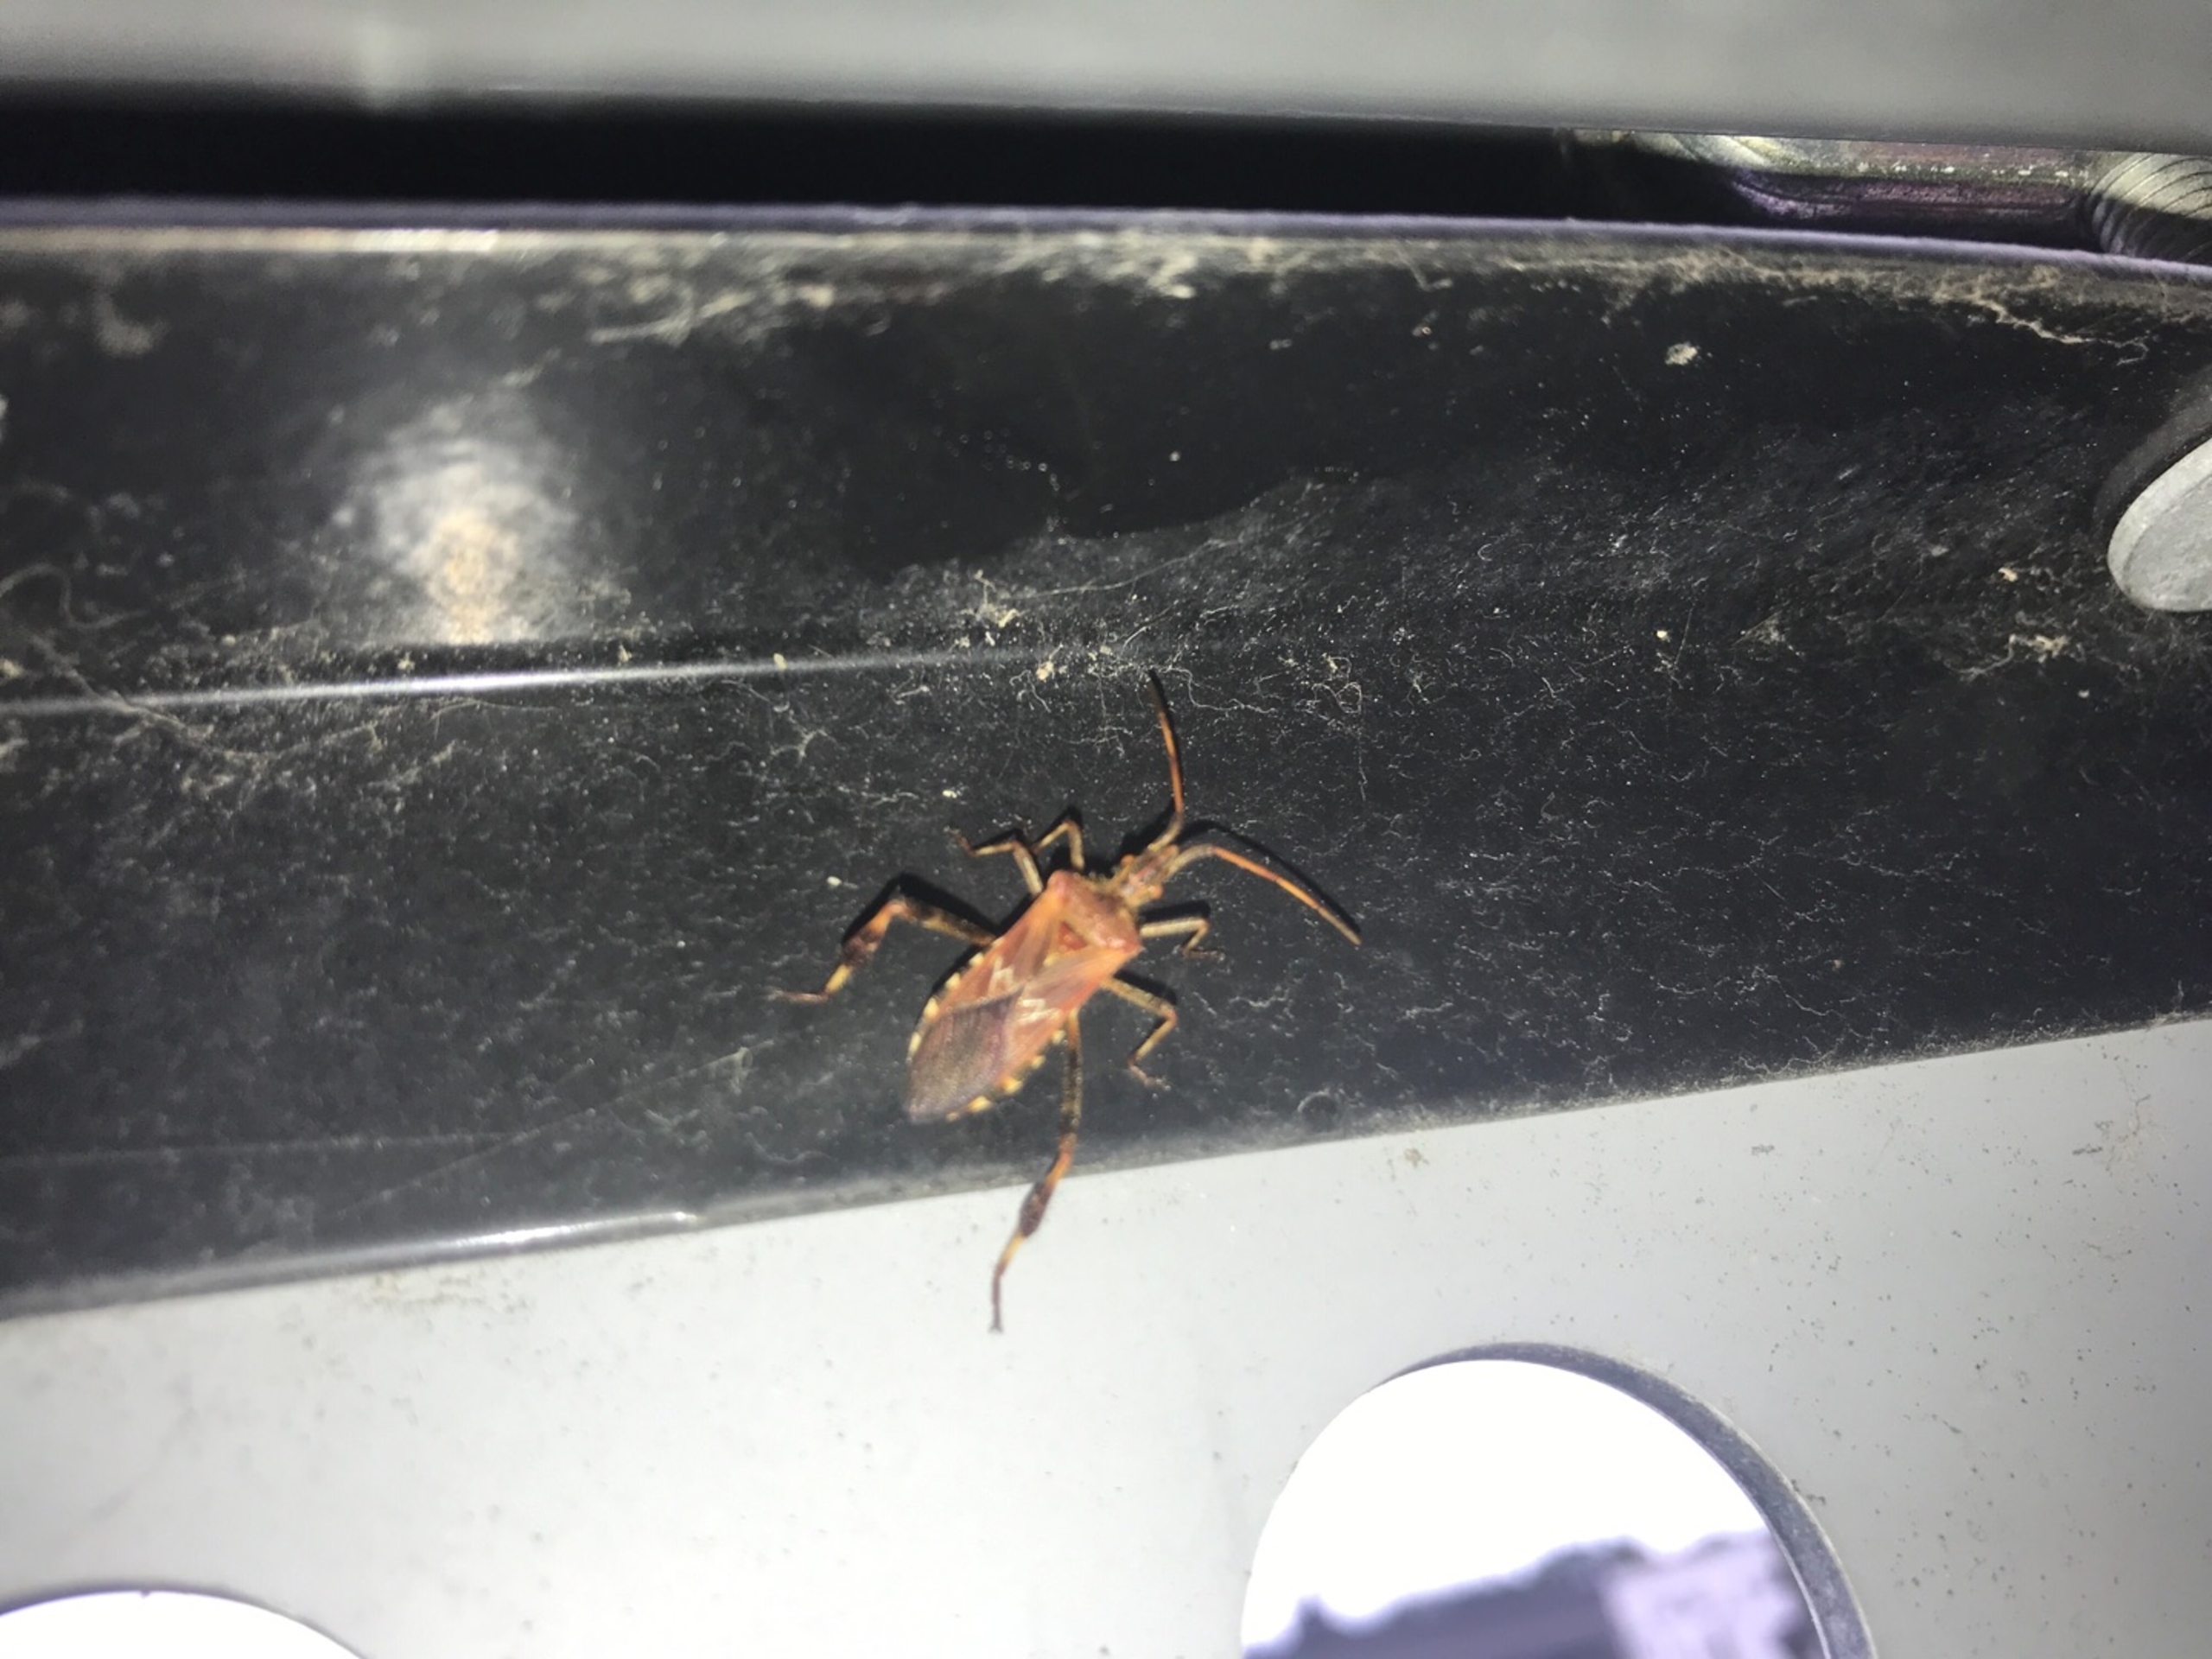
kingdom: Animalia
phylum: Arthropoda
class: Insecta
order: Hemiptera
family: Coreidae
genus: Leptoglossus
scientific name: Leptoglossus occidentalis
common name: Amerikansk fyrretæge
